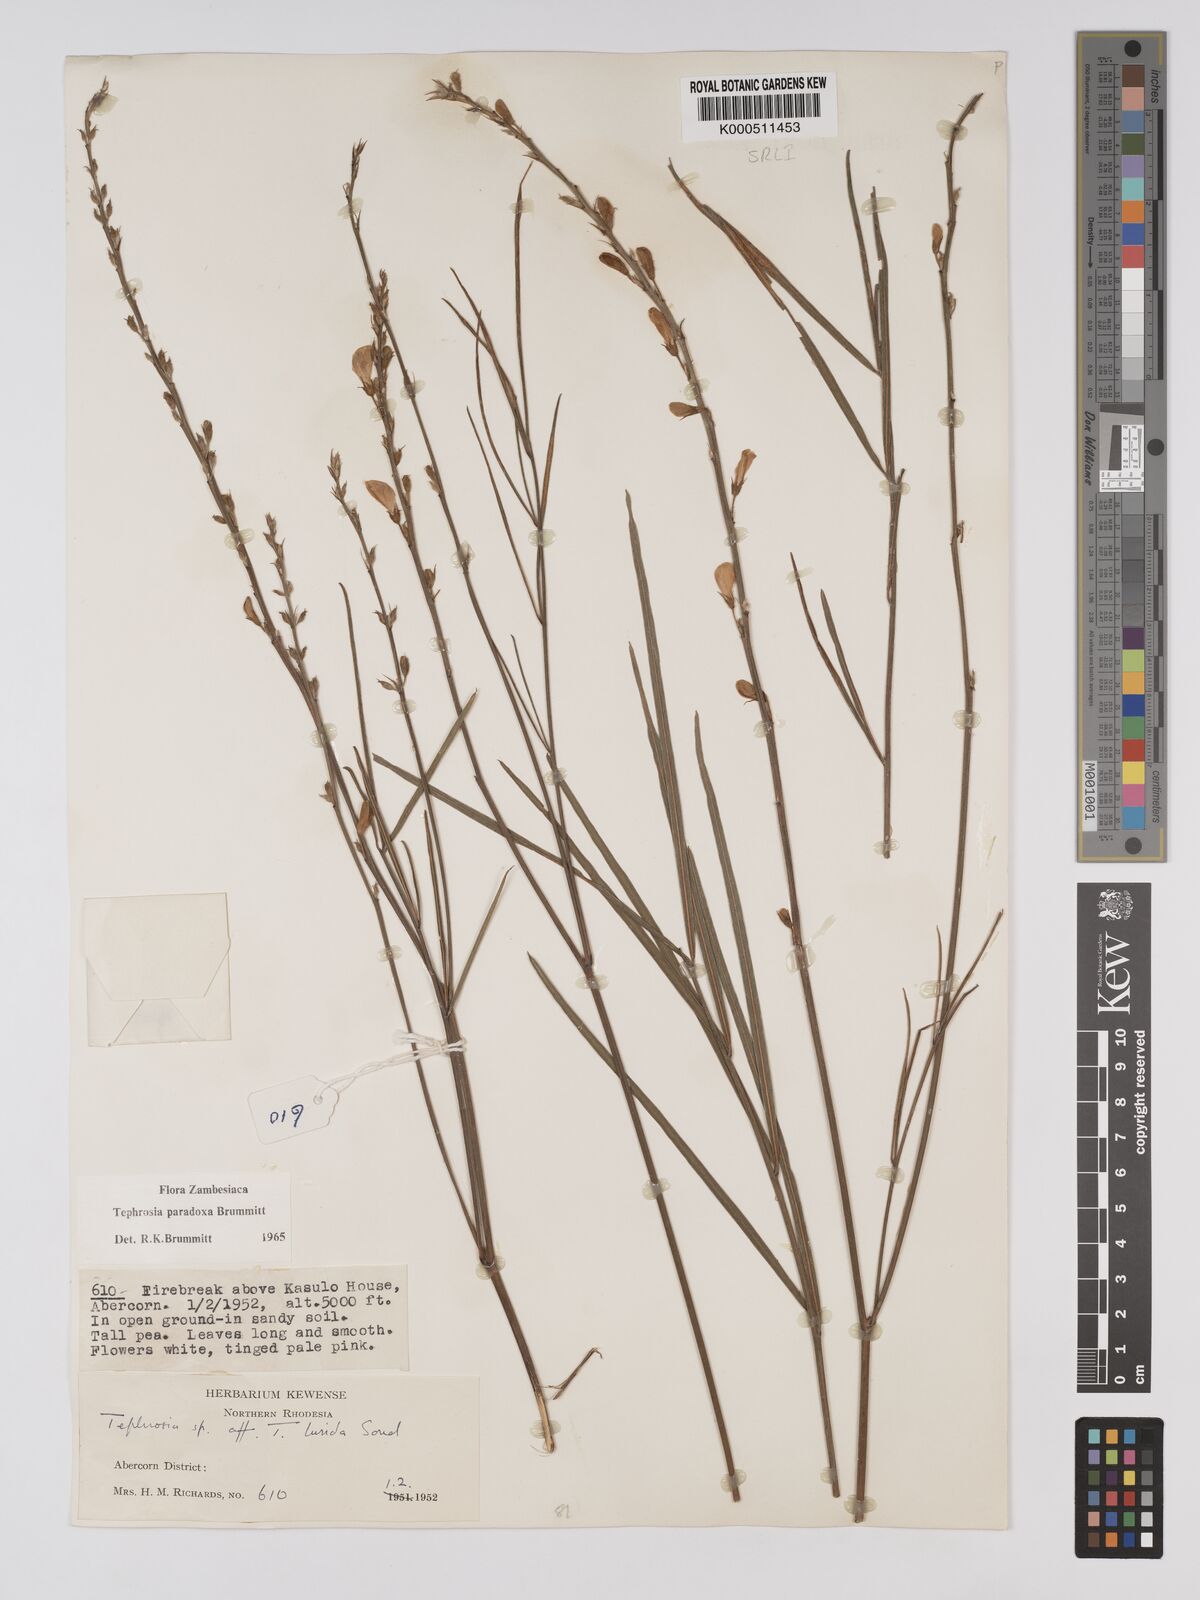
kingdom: Plantae
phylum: Tracheophyta
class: Magnoliopsida
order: Fabales
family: Fabaceae
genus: Tephrosia
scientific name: Tephrosia paradoxa
